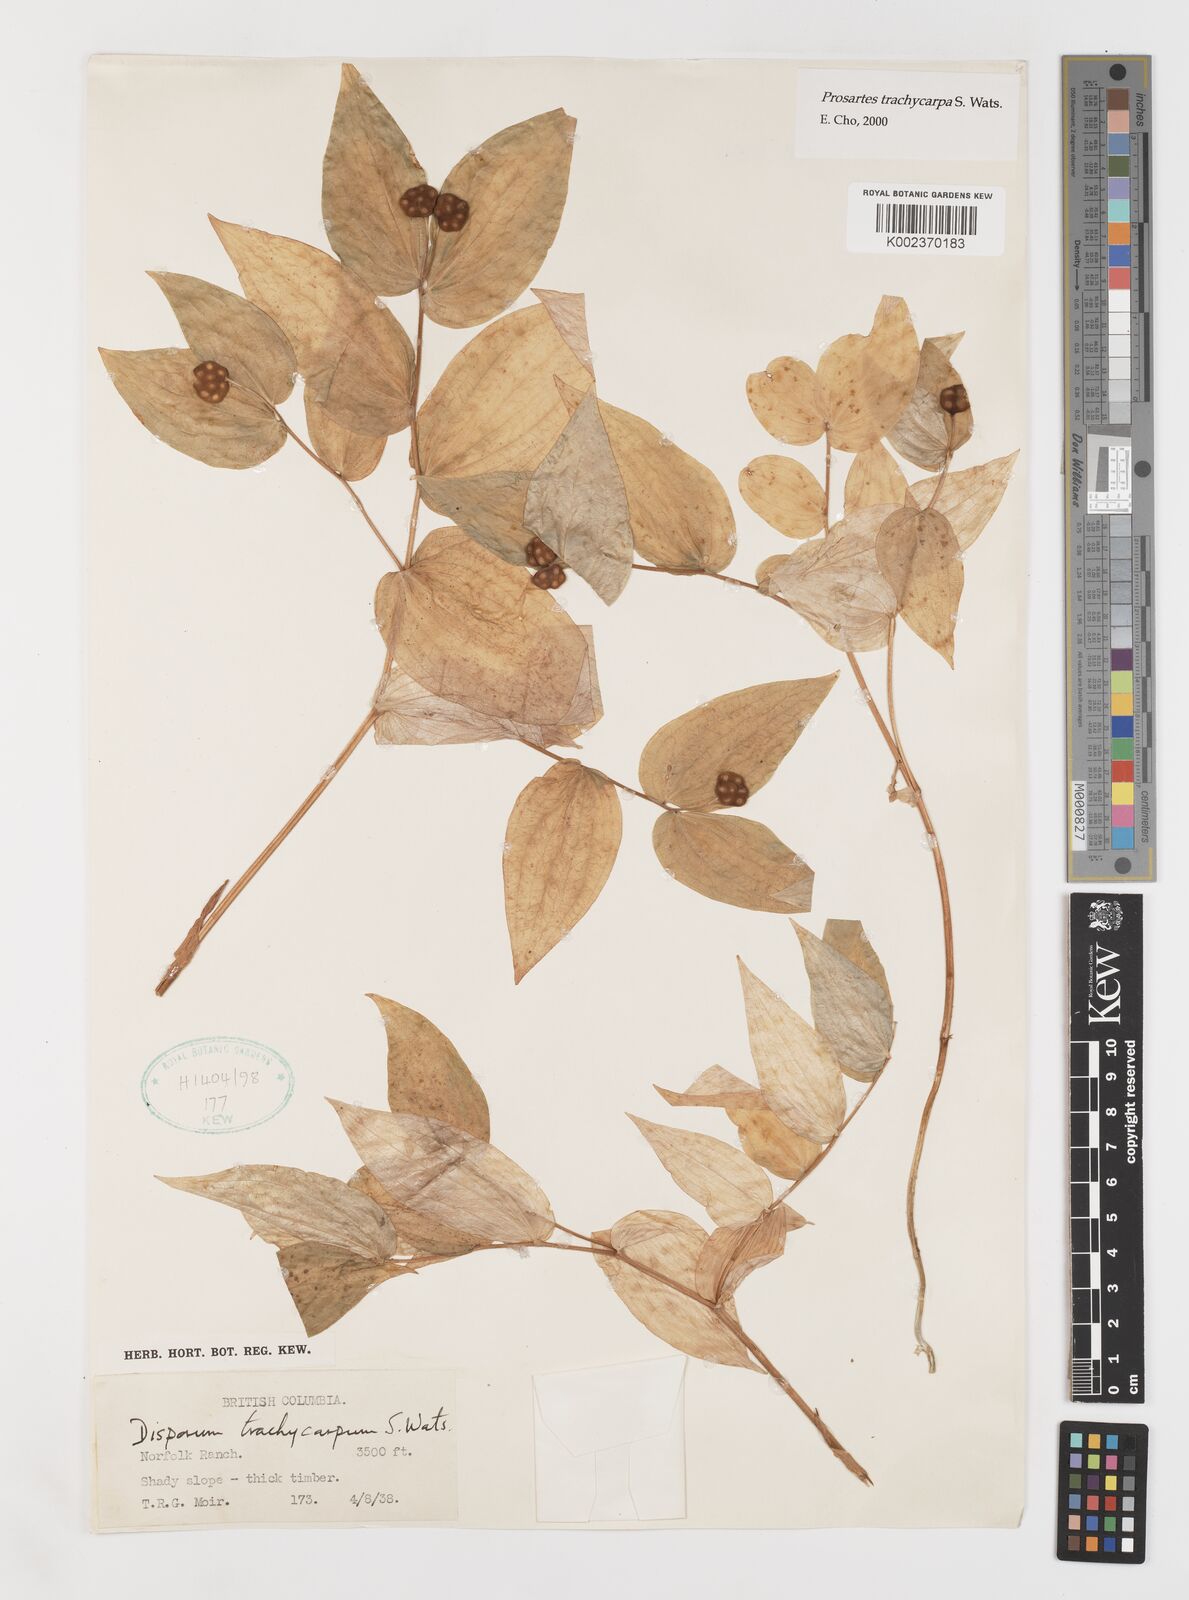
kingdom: Plantae
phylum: Tracheophyta
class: Liliopsida
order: Liliales
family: Liliaceae
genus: Prosartes
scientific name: Prosartes trachycarpa
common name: Rough-fruit fairy-bells
